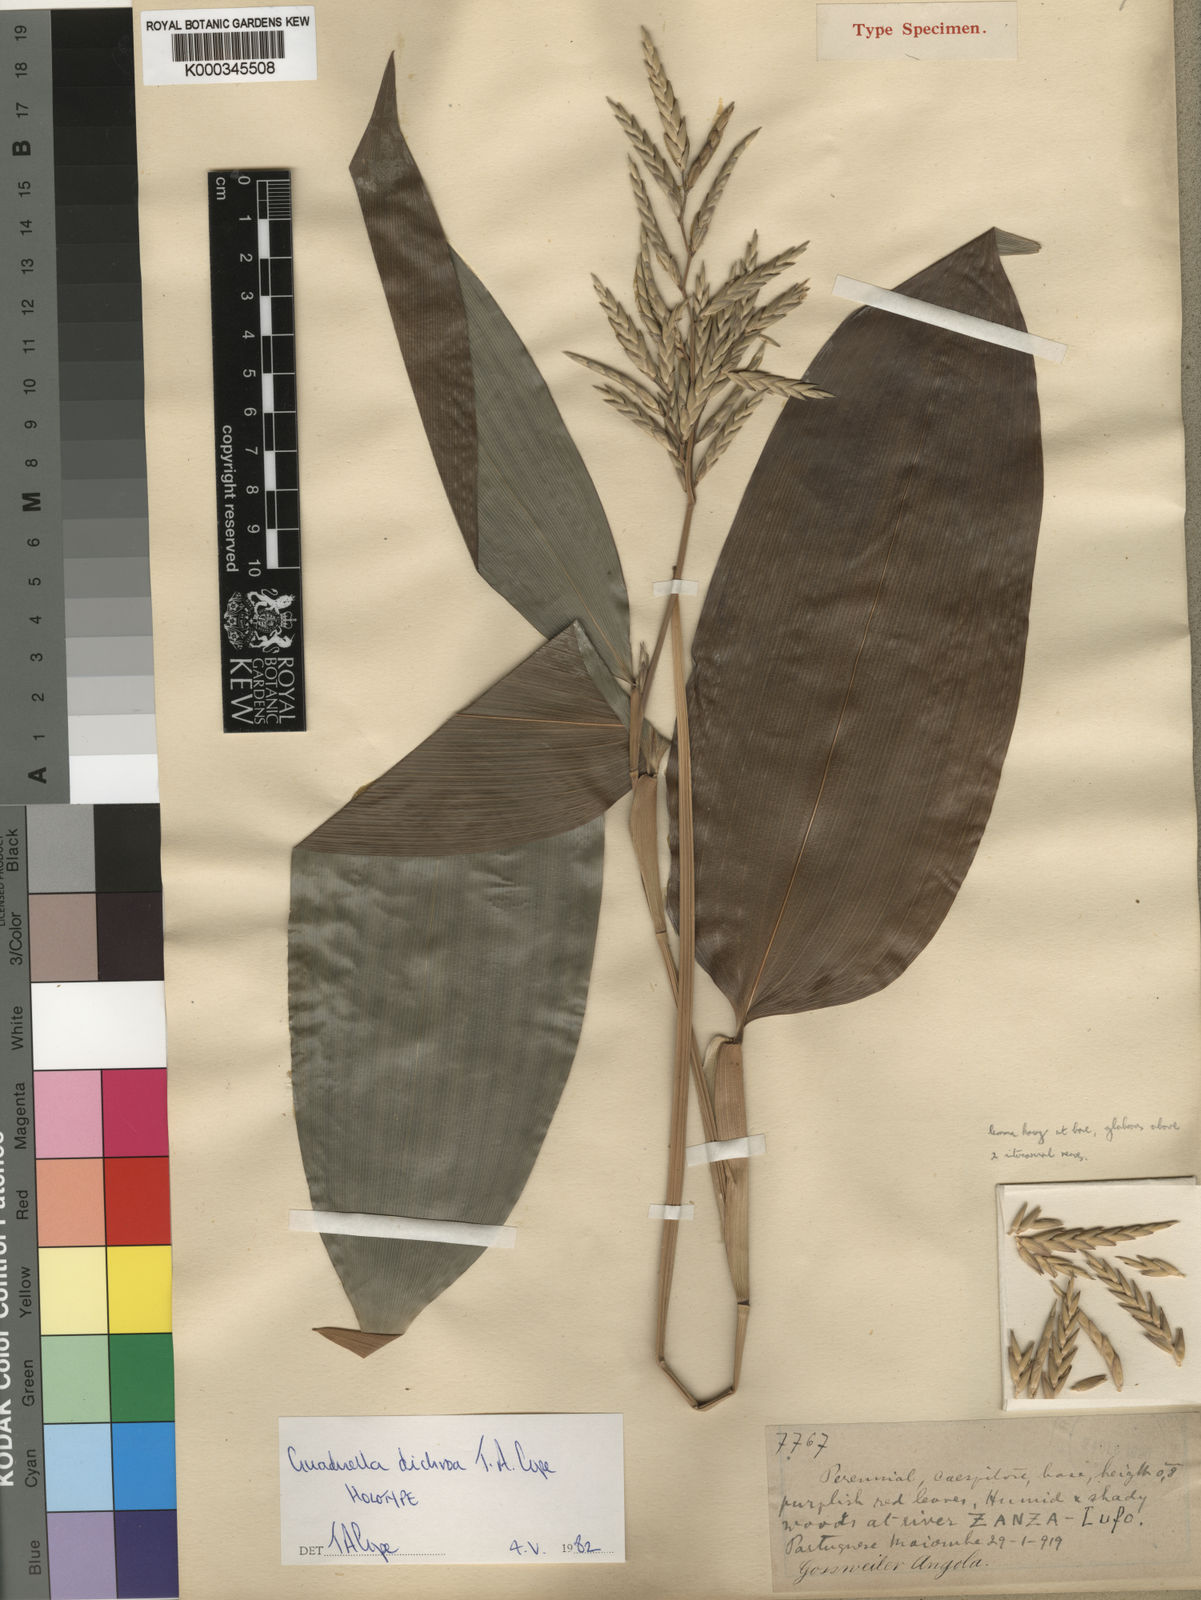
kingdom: Plantae
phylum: Tracheophyta
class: Liliopsida
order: Poales
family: Poaceae
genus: Guaduella
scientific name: Guaduella dichroa
